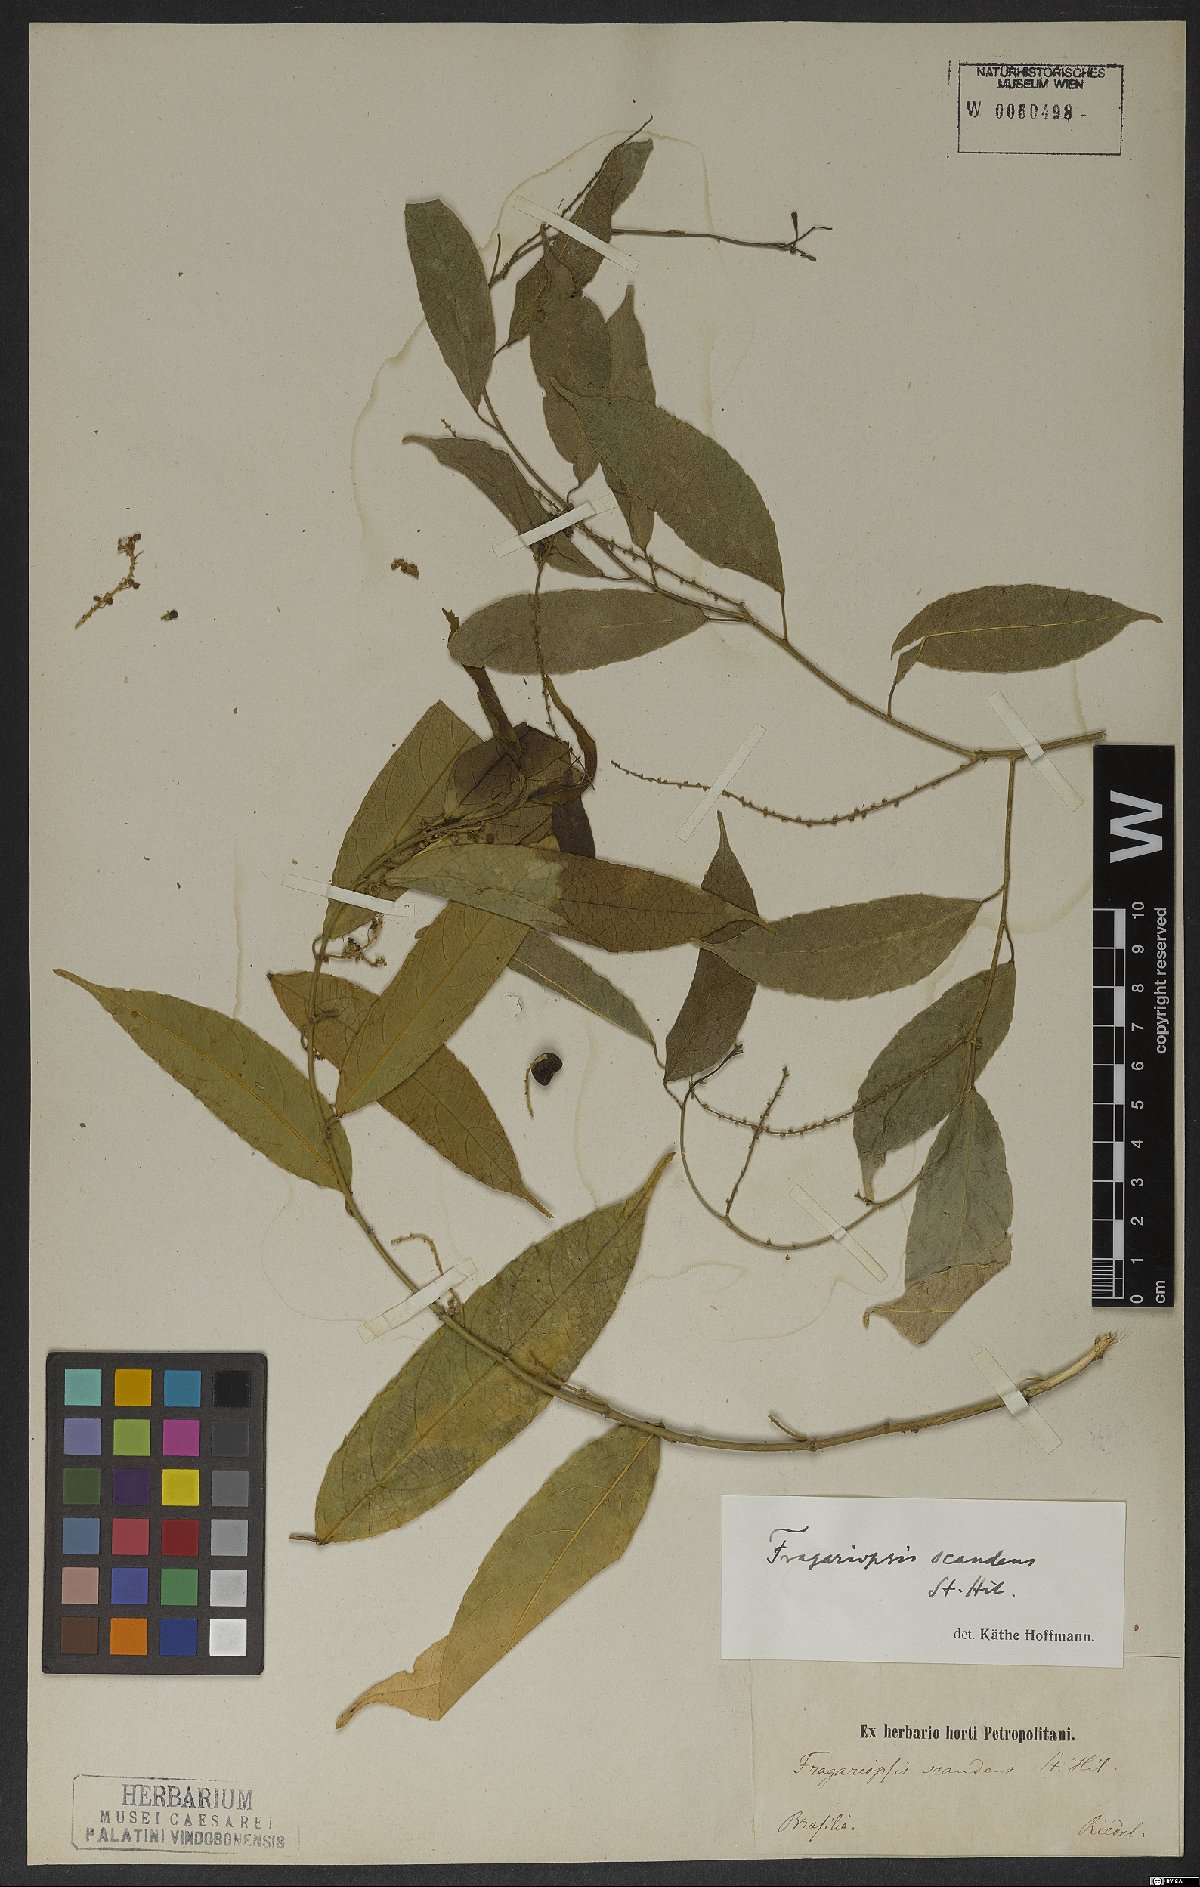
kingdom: Plantae
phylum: Tracheophyta
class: Magnoliopsida
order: Malpighiales
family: Euphorbiaceae
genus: Plukenetia
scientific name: Plukenetia serrata
